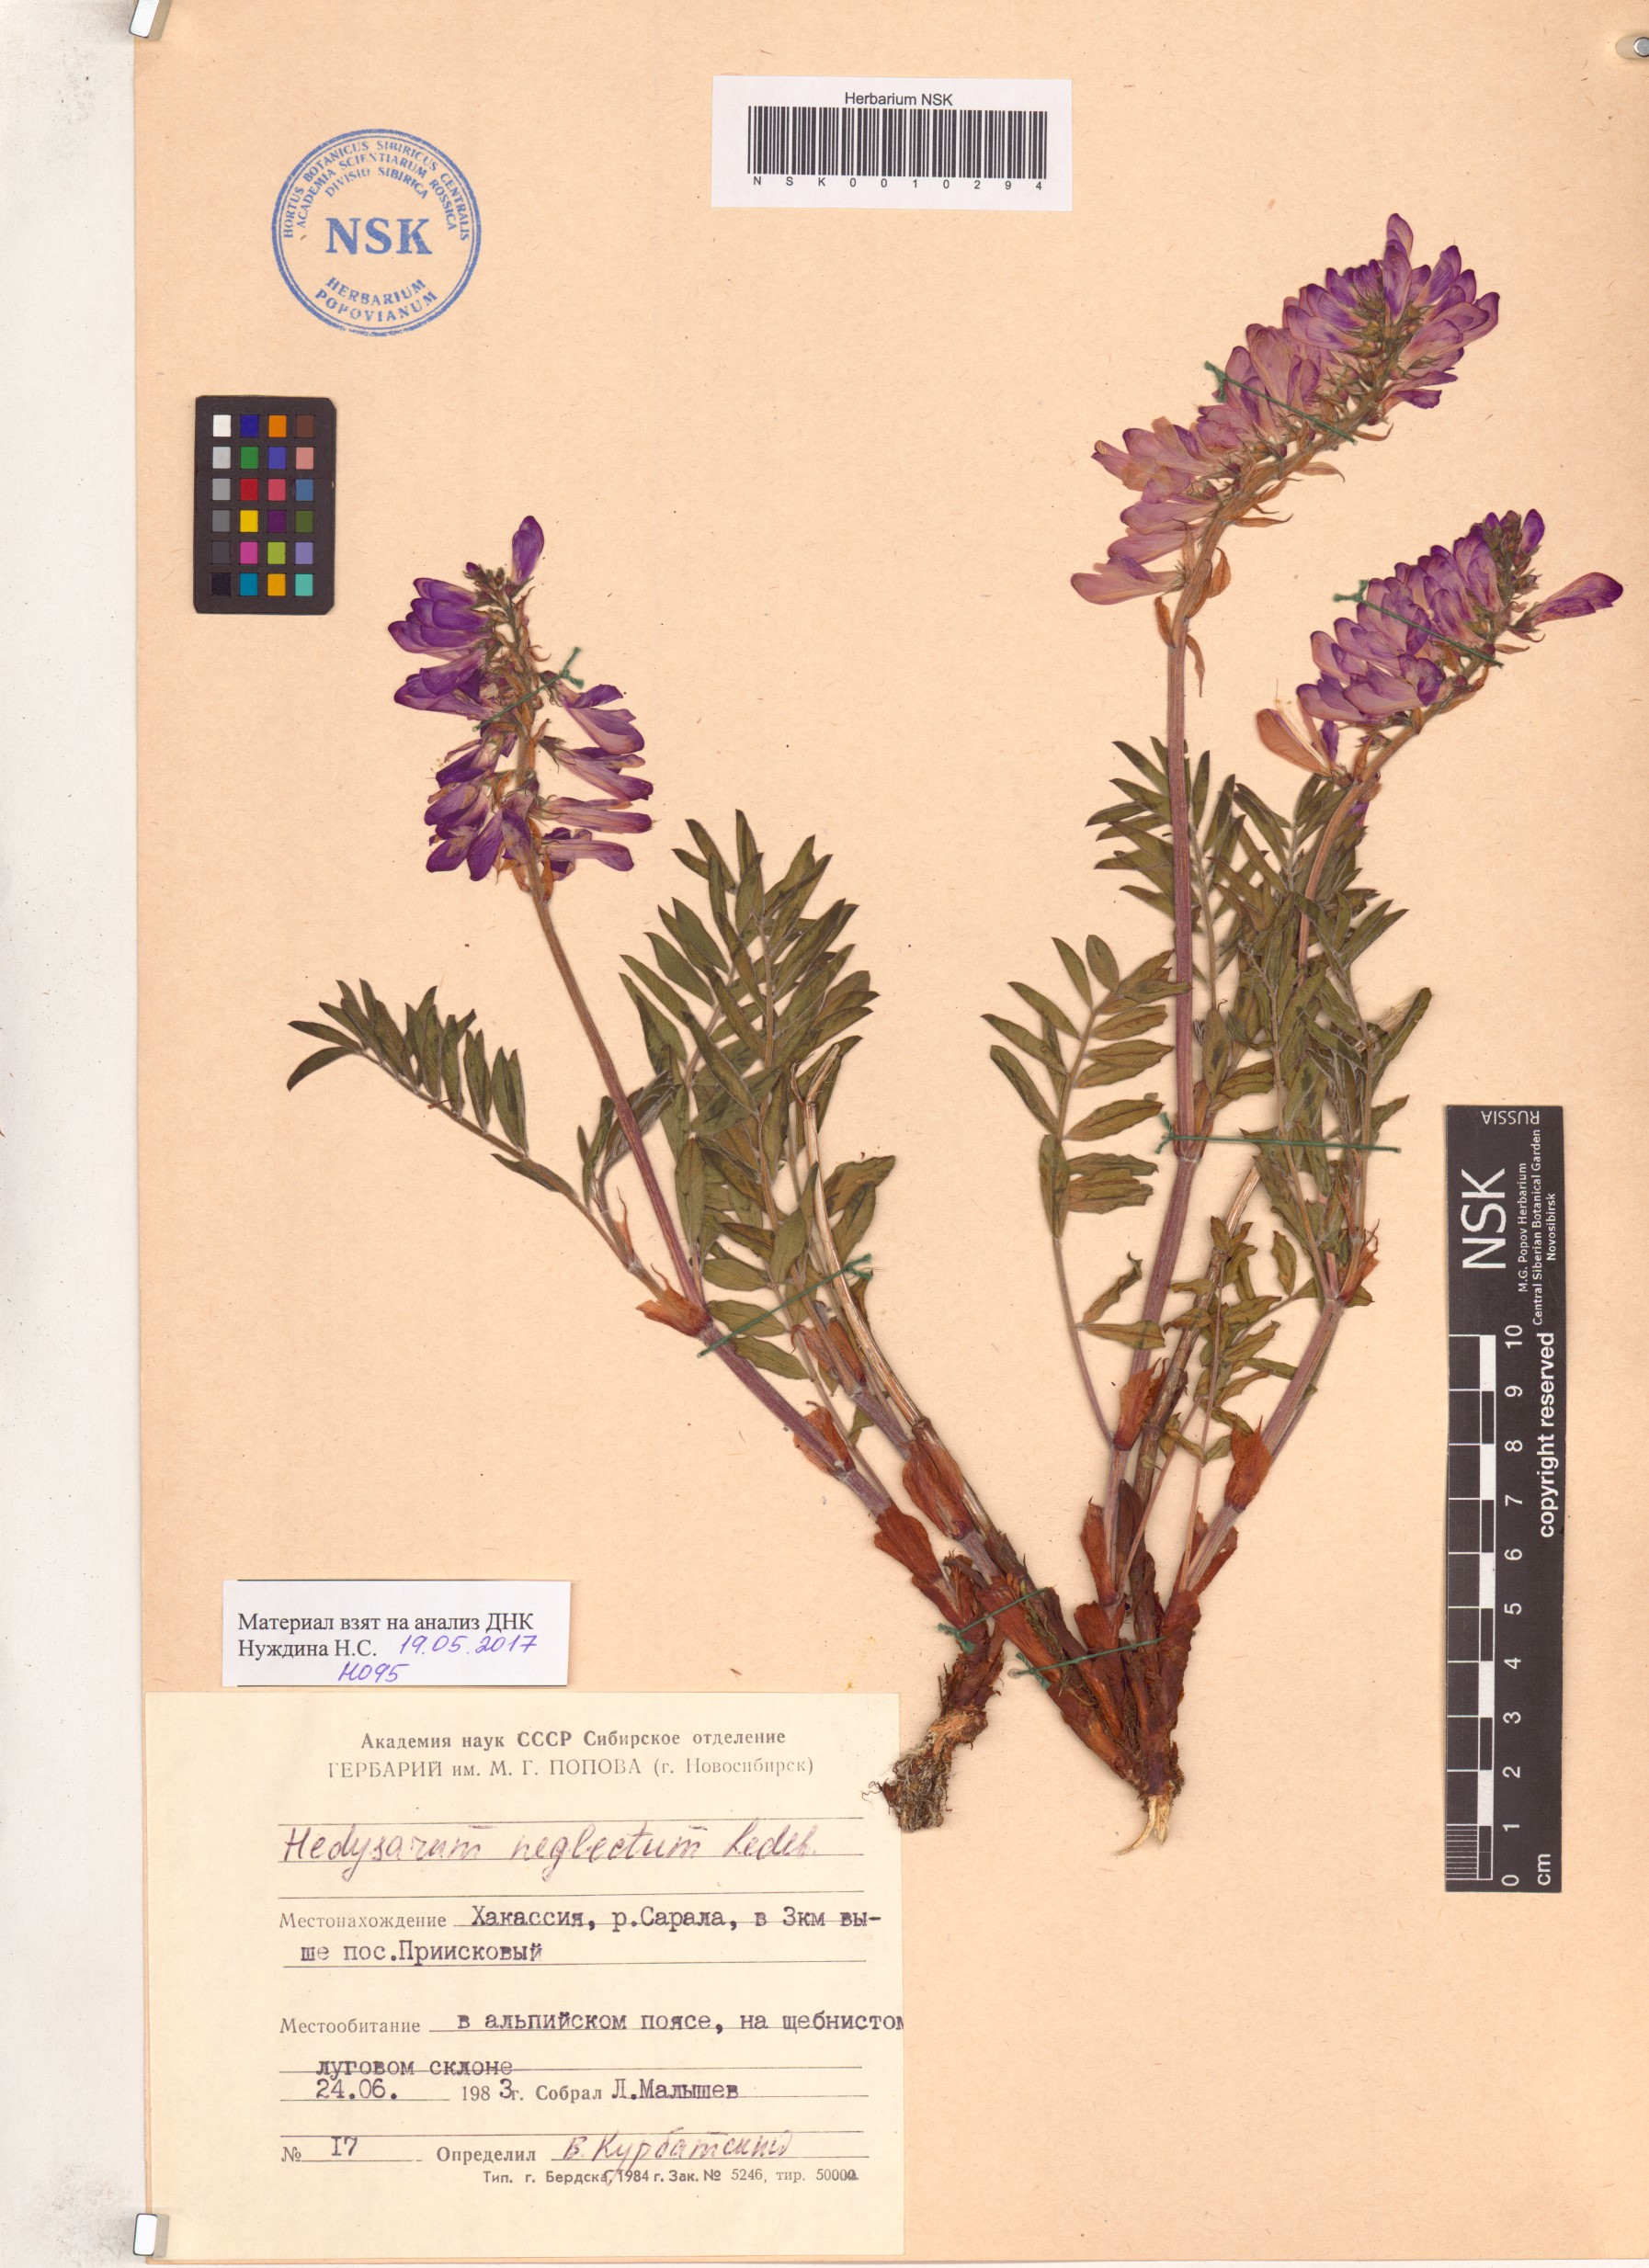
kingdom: Plantae
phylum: Tracheophyta
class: Magnoliopsida
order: Fabales
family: Fabaceae
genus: Hedysarum
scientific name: Hedysarum neglectum
